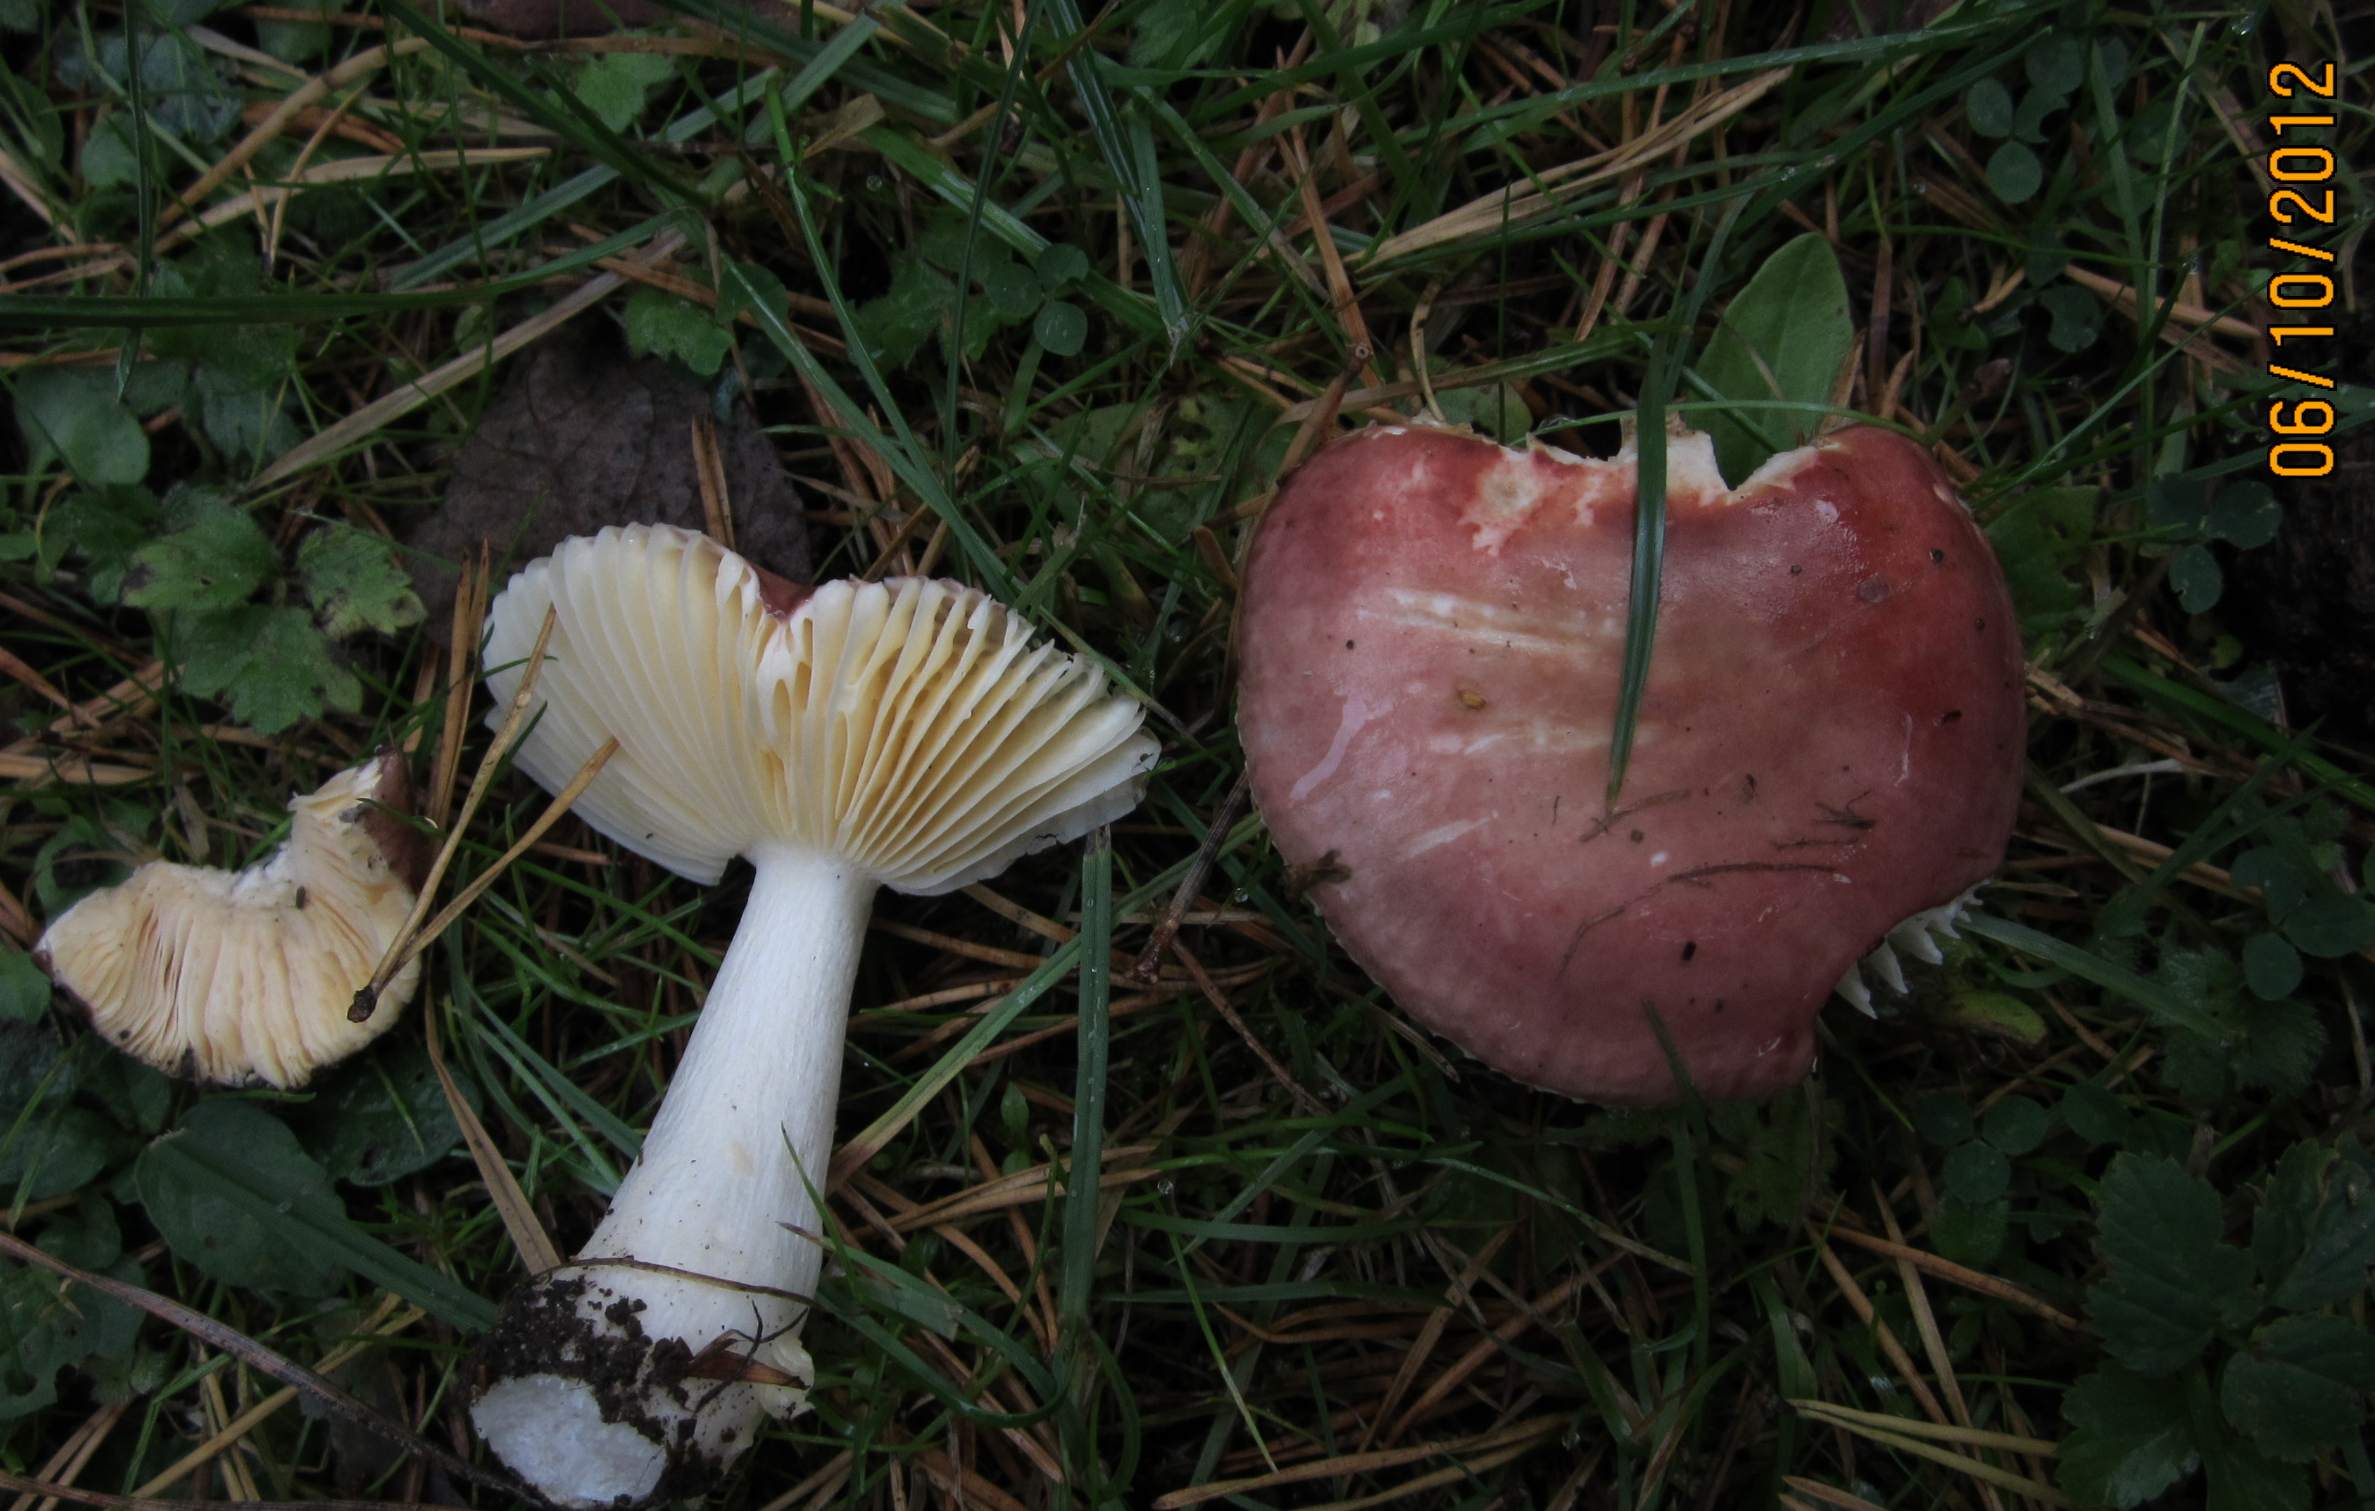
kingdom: Fungi
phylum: Basidiomycota
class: Agaricomycetes
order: Russulales
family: Russulaceae
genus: Russula
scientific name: Russula cessans
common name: fyrre-skørhat
